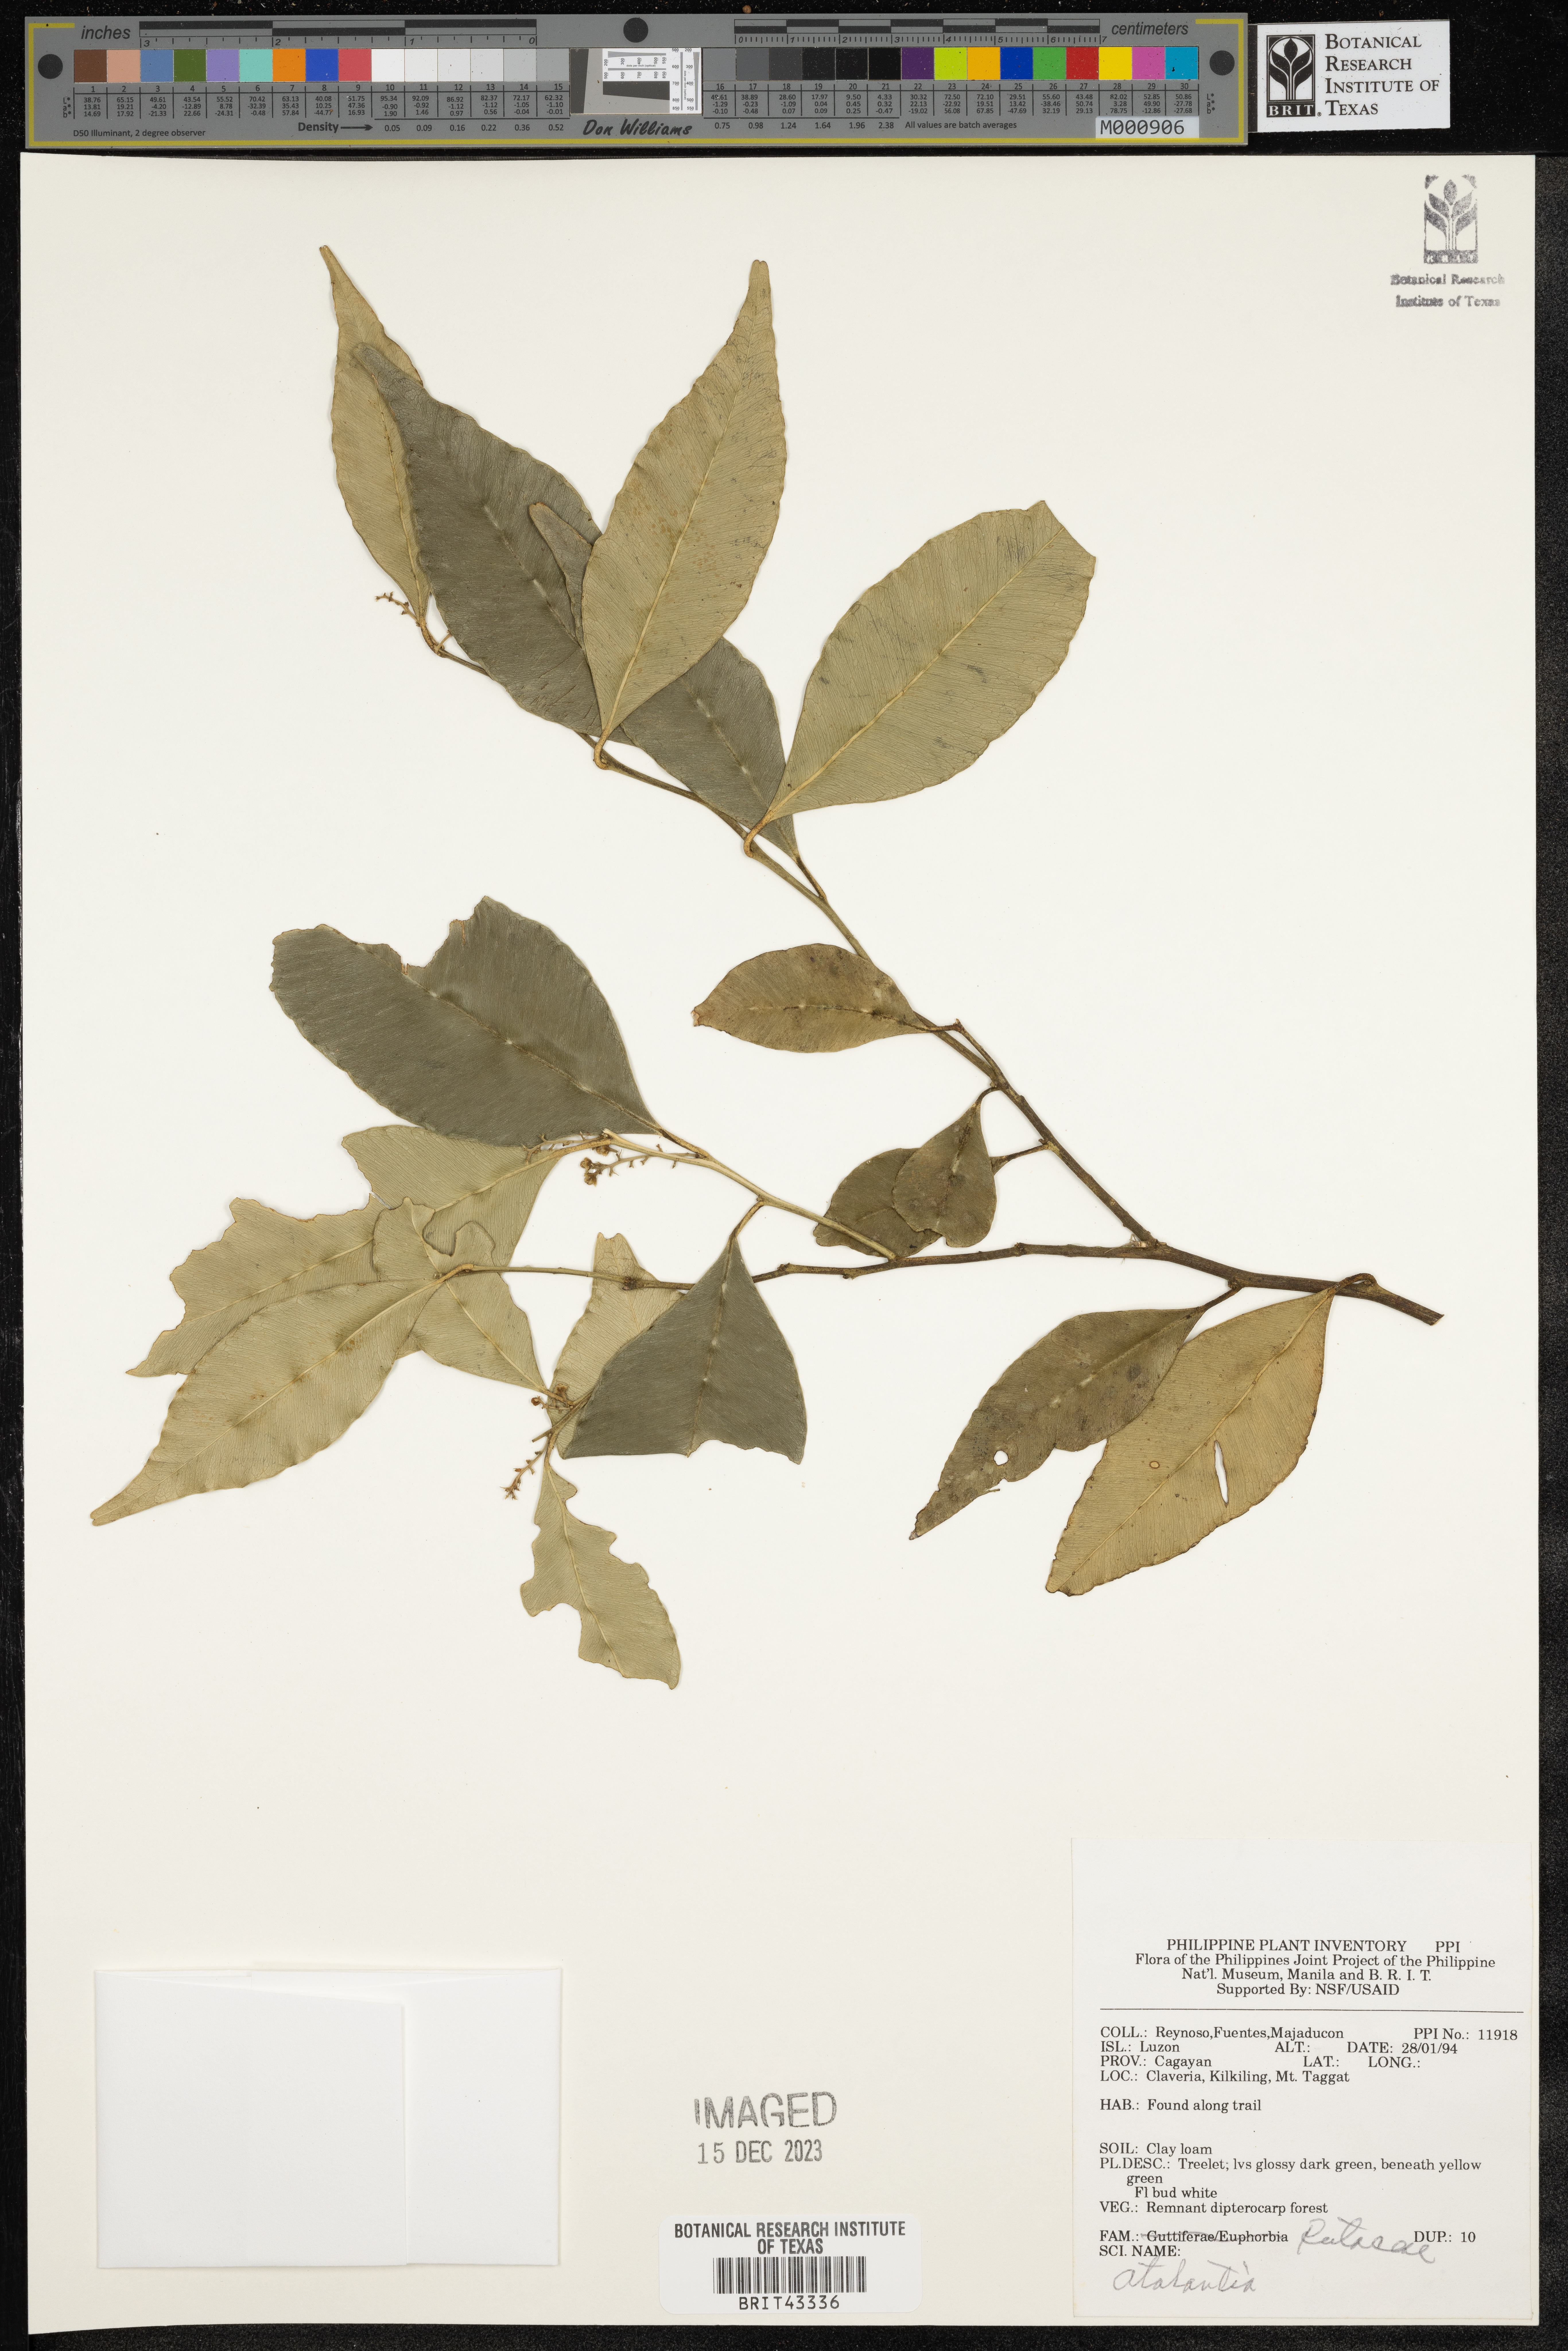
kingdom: Plantae
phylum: Tracheophyta
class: Magnoliopsida
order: Sapindales
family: Rutaceae
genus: Atalantia
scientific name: Atalantia
